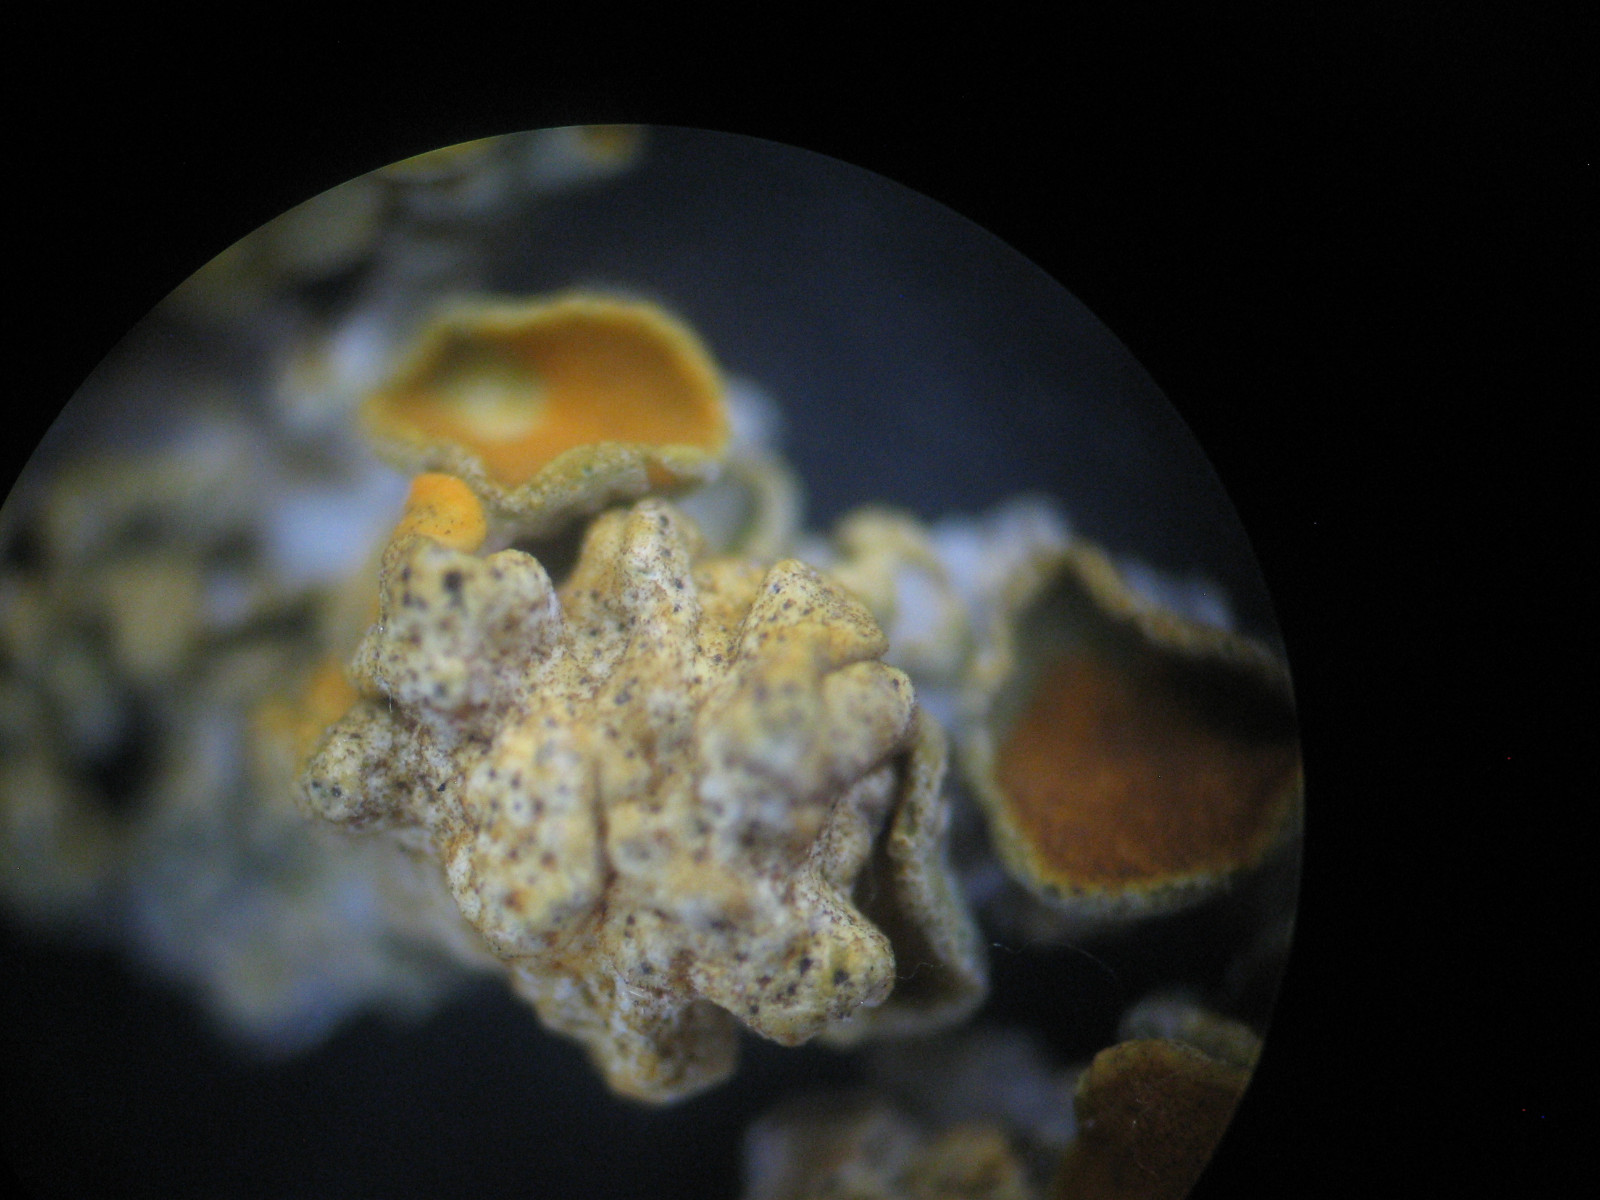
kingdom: Fungi
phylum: Ascomycota
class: Eurotiomycetes
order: Verrucariales
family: Verrucariaceae
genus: Telogalla
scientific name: Telogalla olivieri
